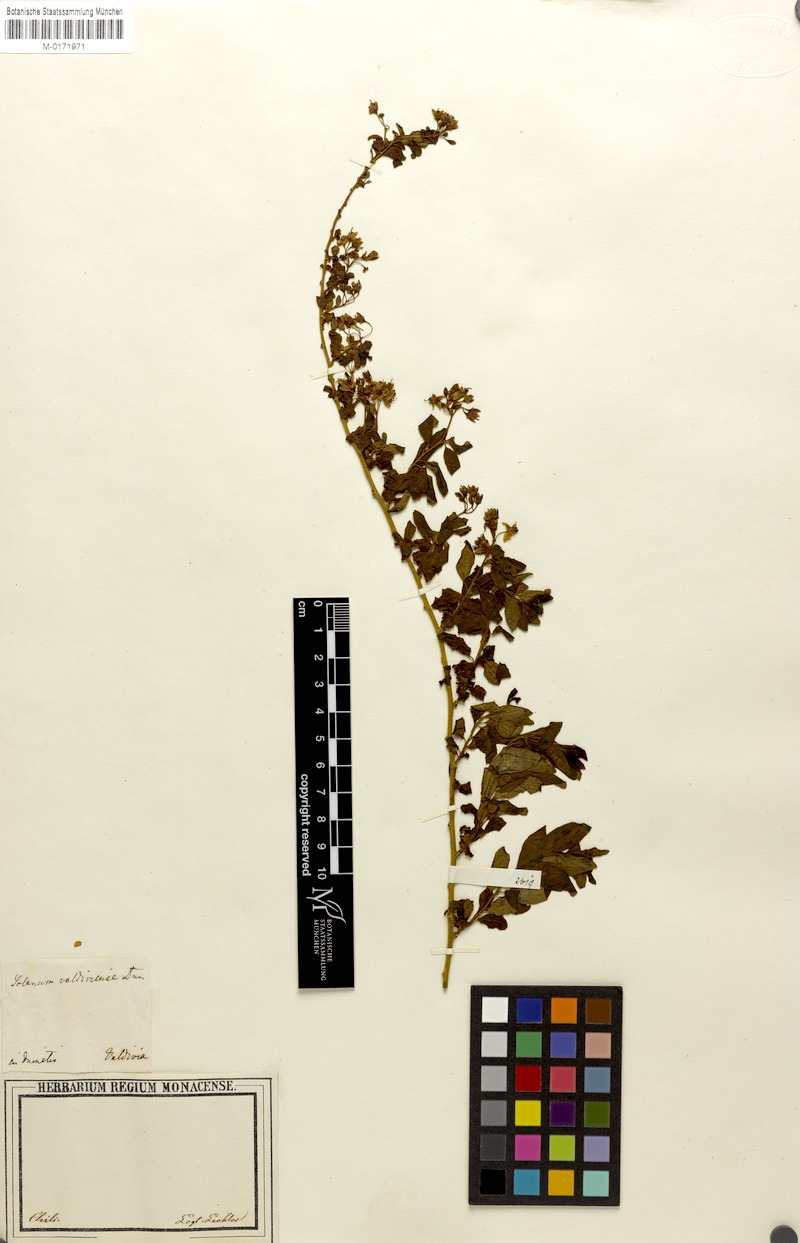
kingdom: Plantae
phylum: Tracheophyta
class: Magnoliopsida
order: Solanales
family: Solanaceae
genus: Solanum
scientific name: Solanum valdiviense
